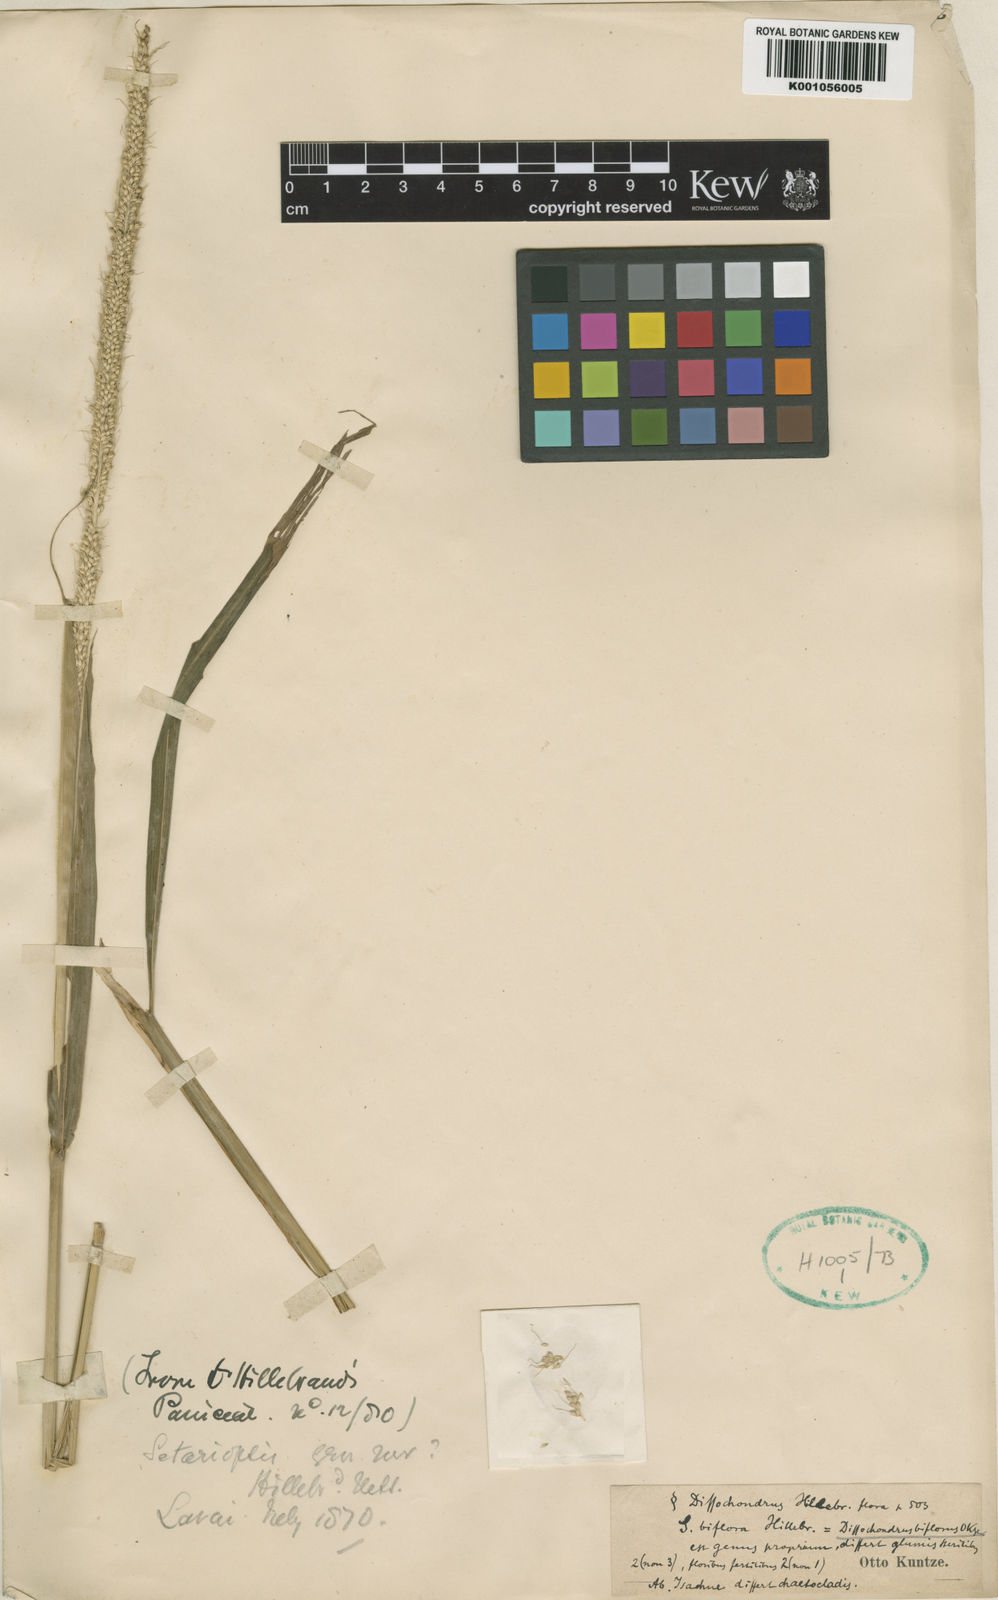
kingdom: Plantae
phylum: Tracheophyta
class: Liliopsida
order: Poales
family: Poaceae
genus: Dissochondrus
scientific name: Dissochondrus biflorus
